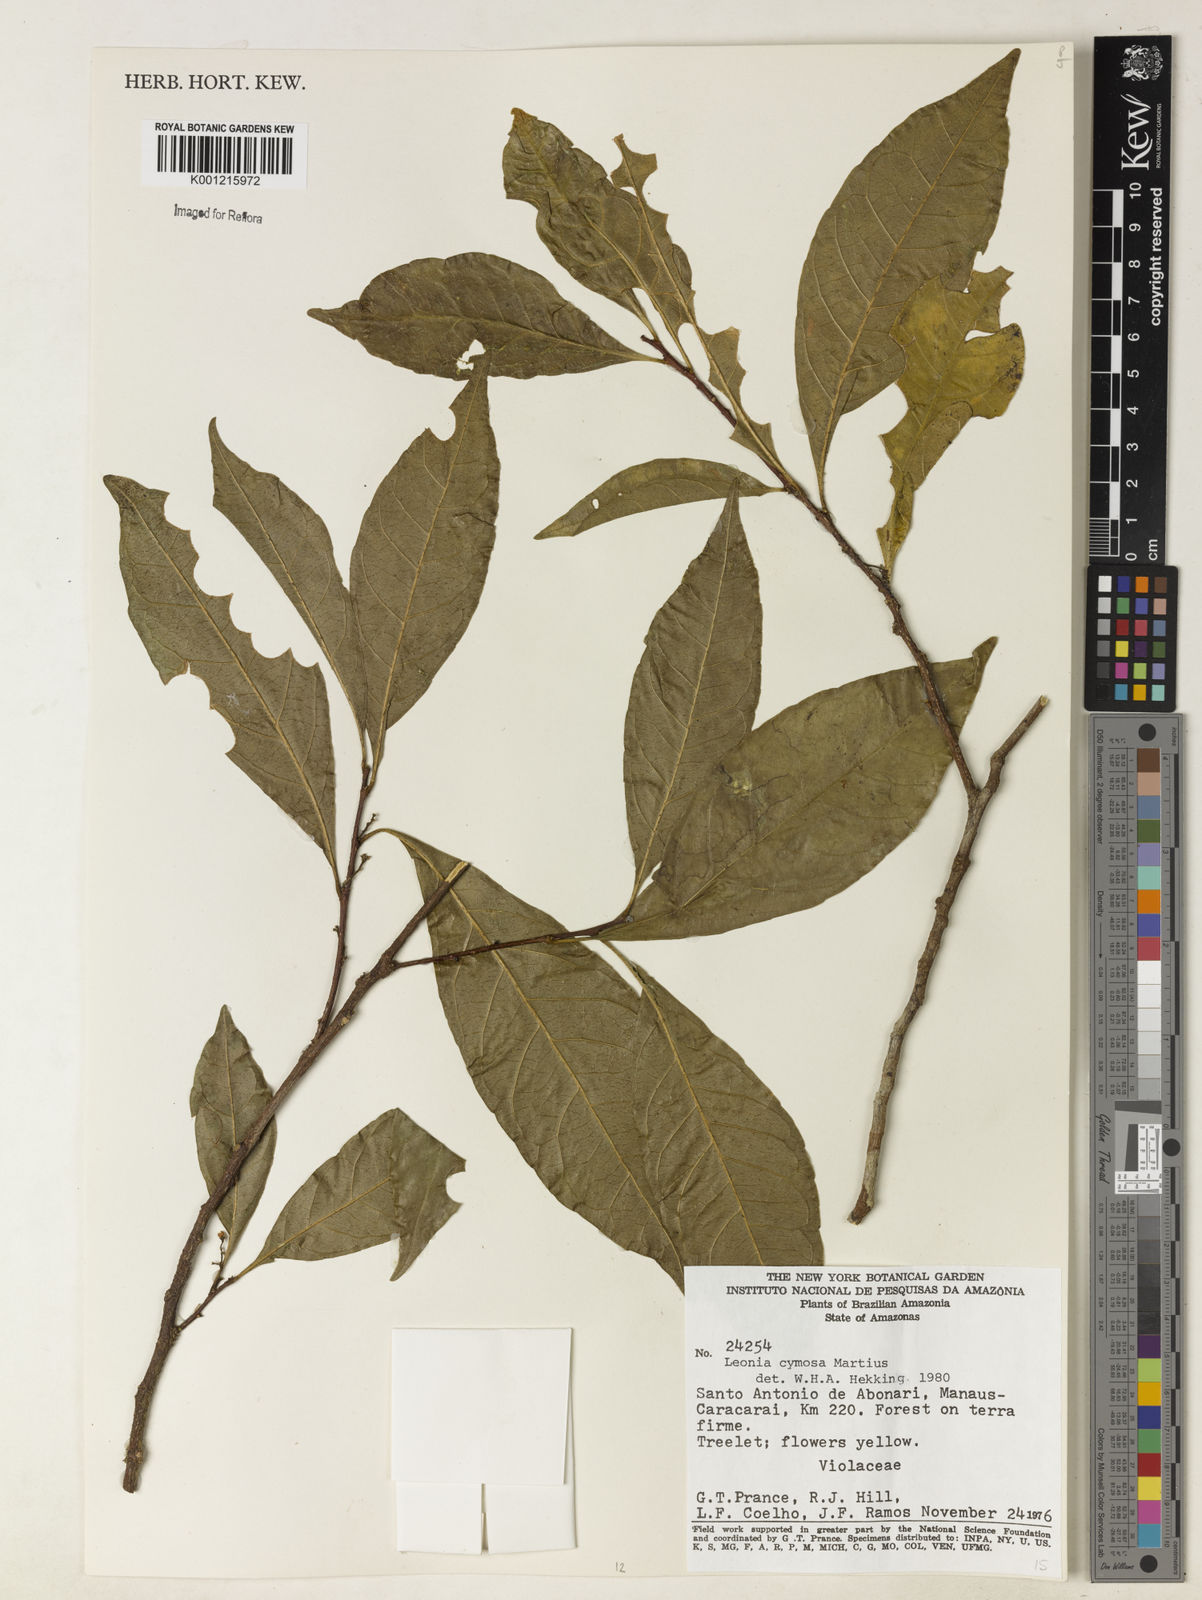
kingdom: Plantae
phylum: Tracheophyta
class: Magnoliopsida
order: Malpighiales
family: Violaceae
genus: Leonia
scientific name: Leonia cymosa
